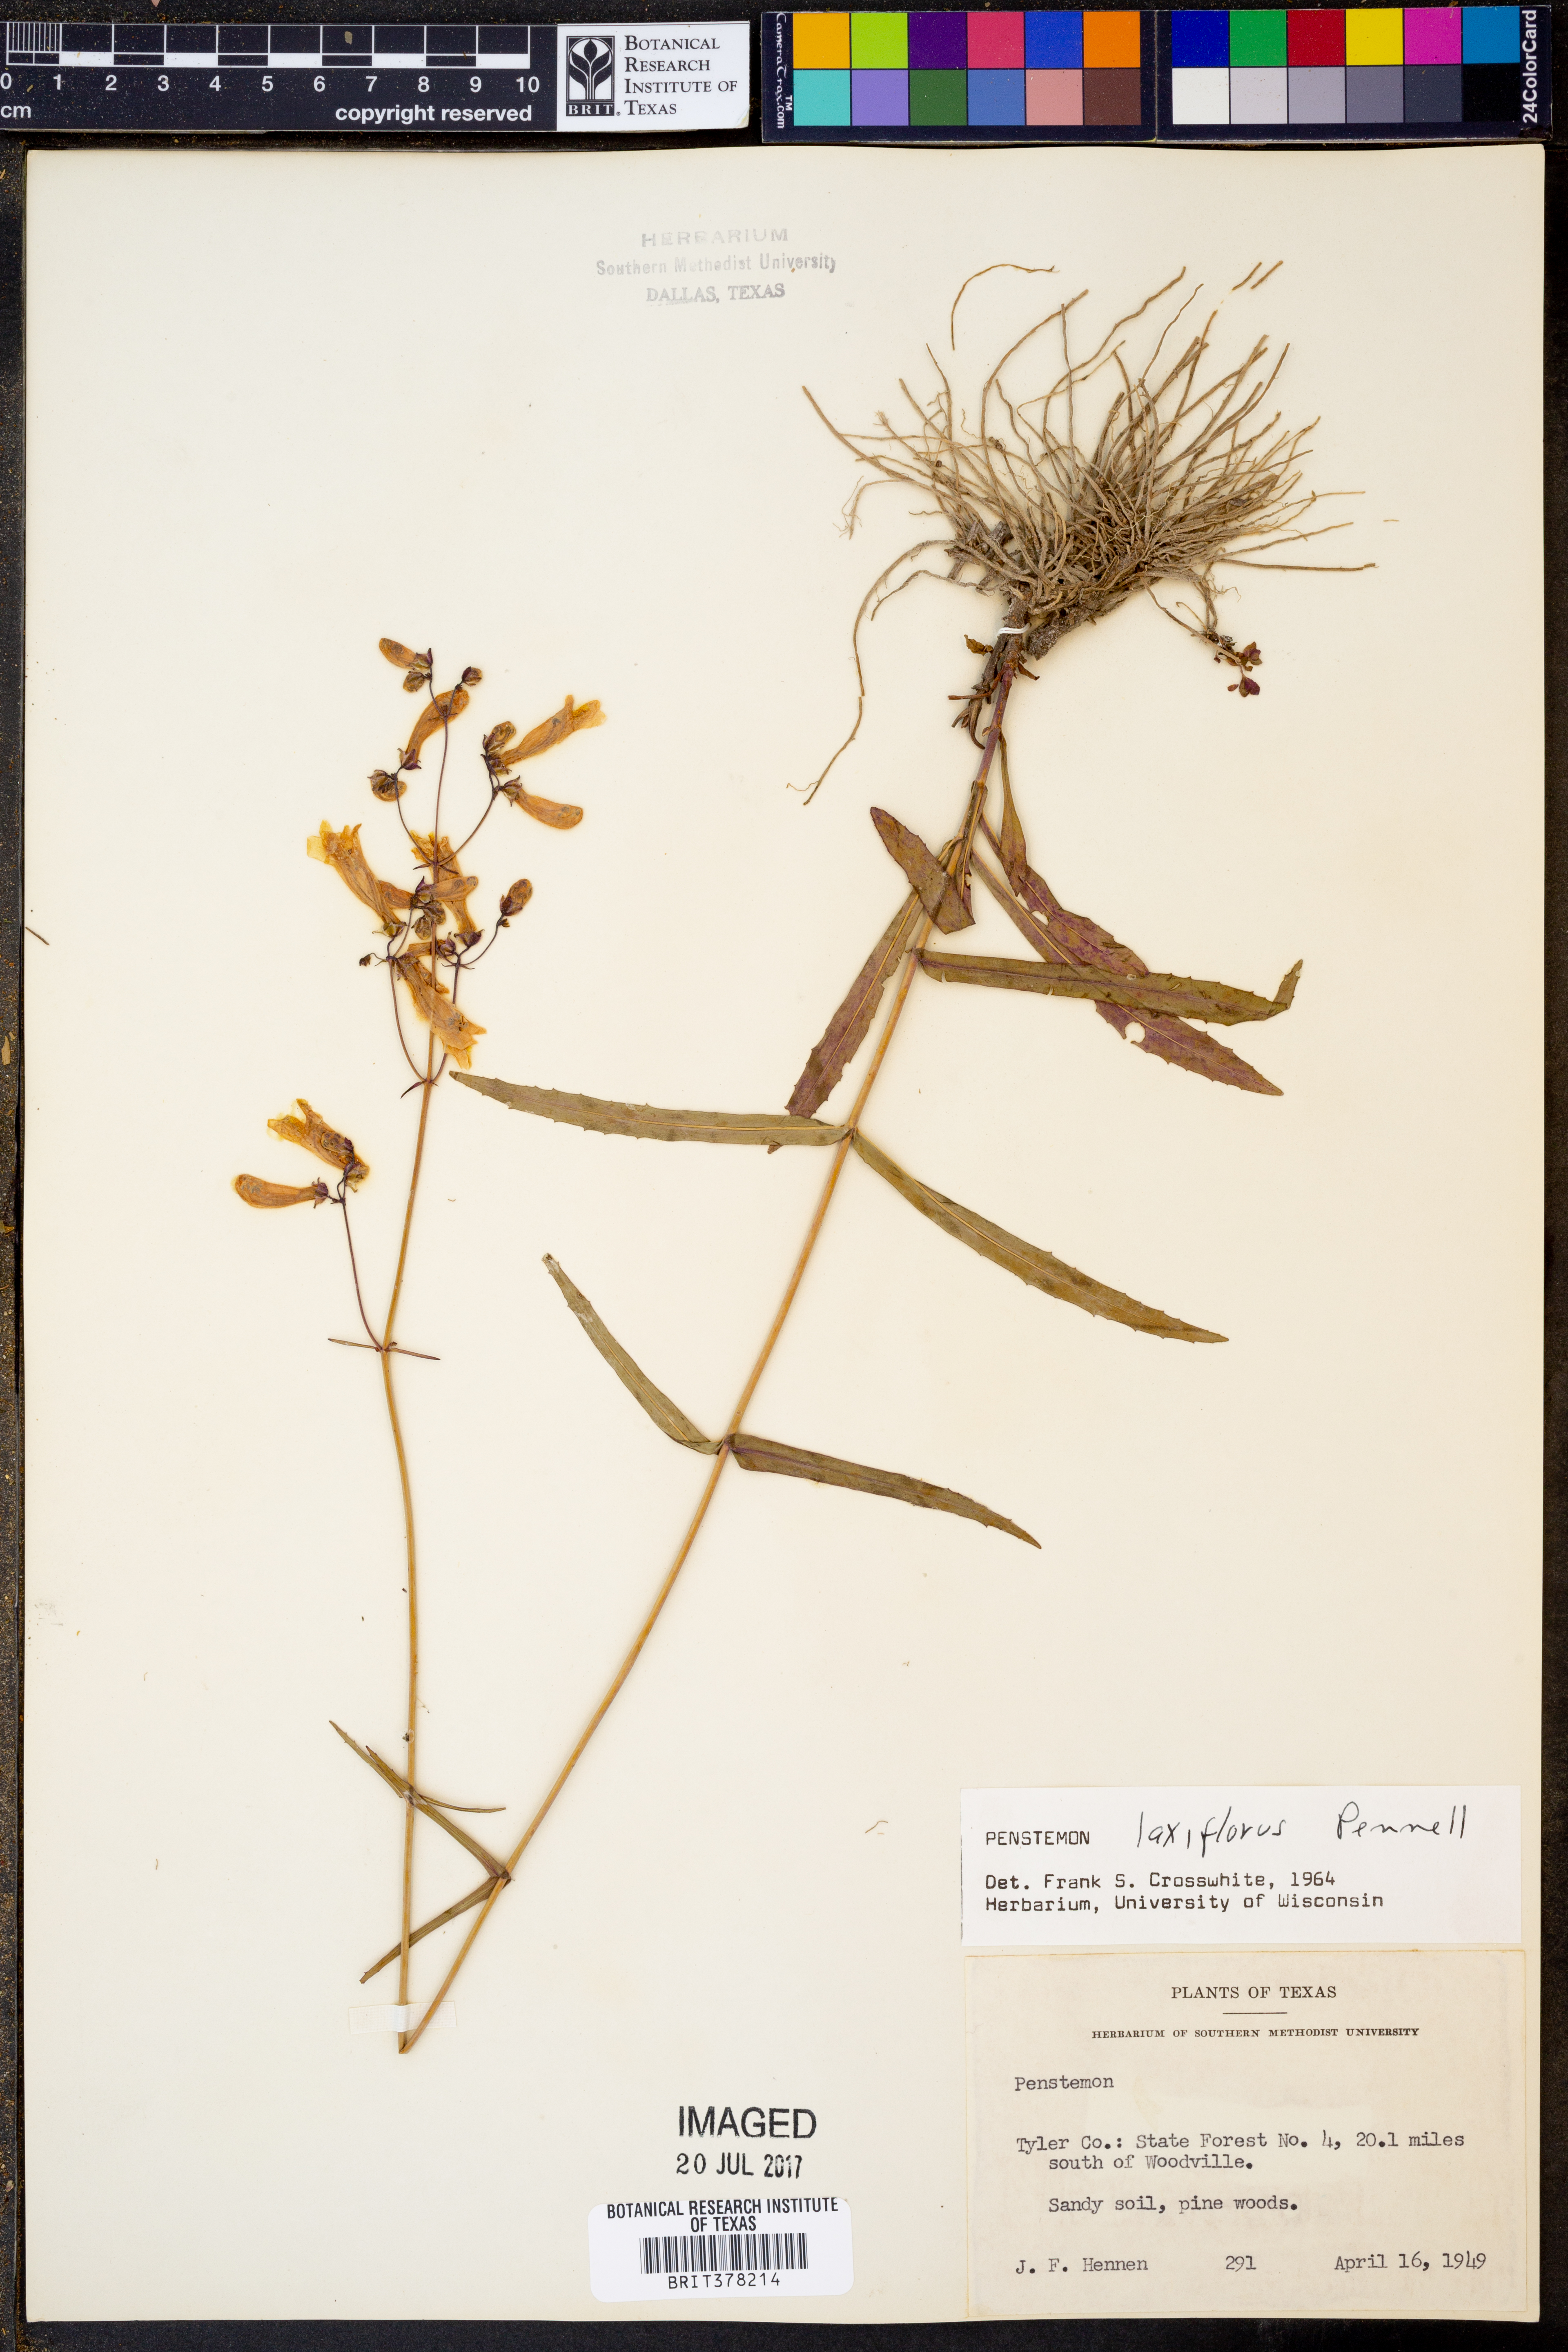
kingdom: Plantae
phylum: Tracheophyta
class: Magnoliopsida
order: Lamiales
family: Plantaginaceae
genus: Penstemon
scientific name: Penstemon laxiflorus
